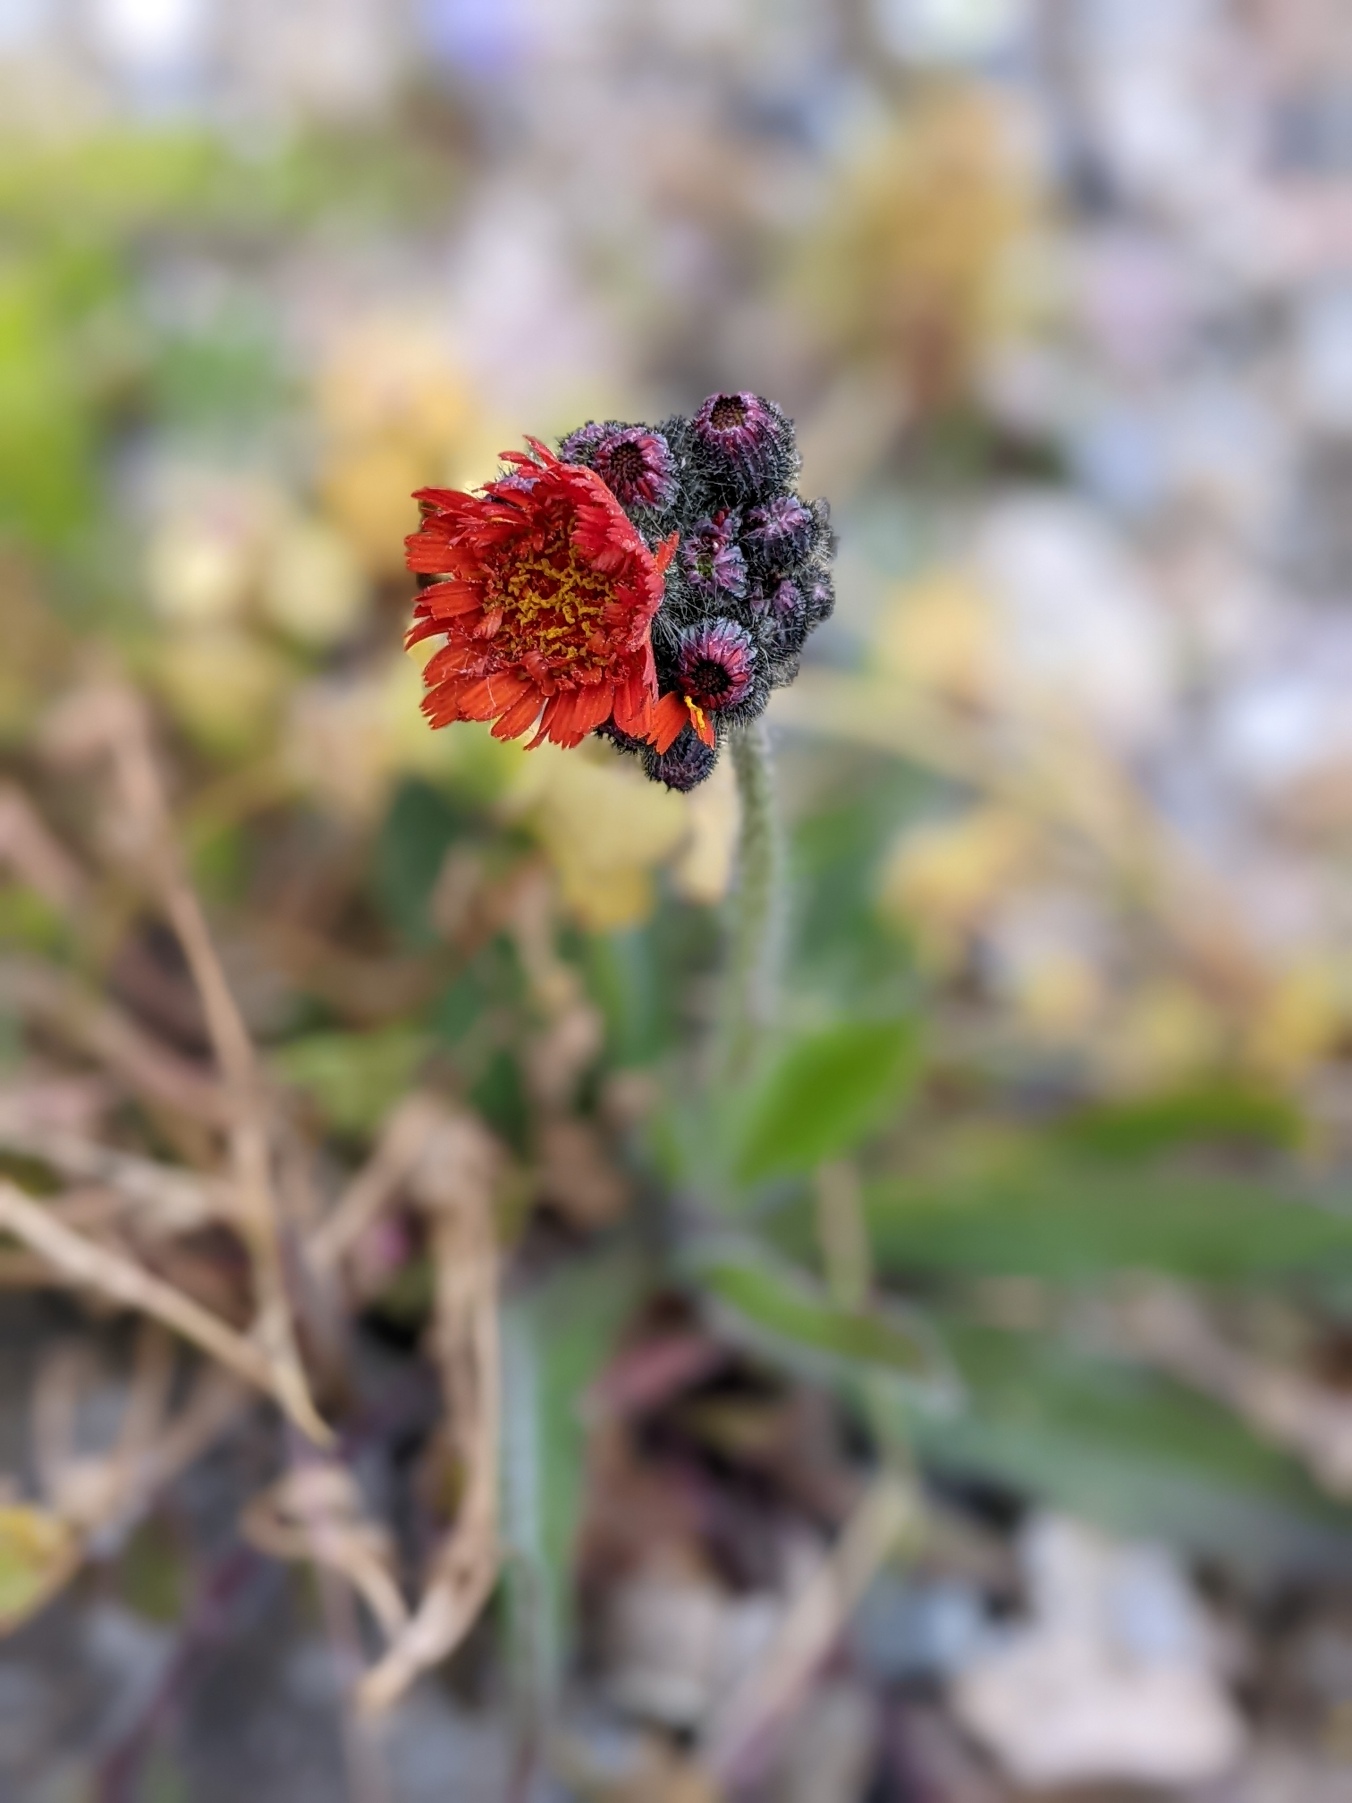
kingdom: Plantae
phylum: Tracheophyta
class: Magnoliopsida
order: Asterales
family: Asteraceae
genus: Pilosella
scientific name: Pilosella aurantiaca
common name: Pomerans-høgeurt
